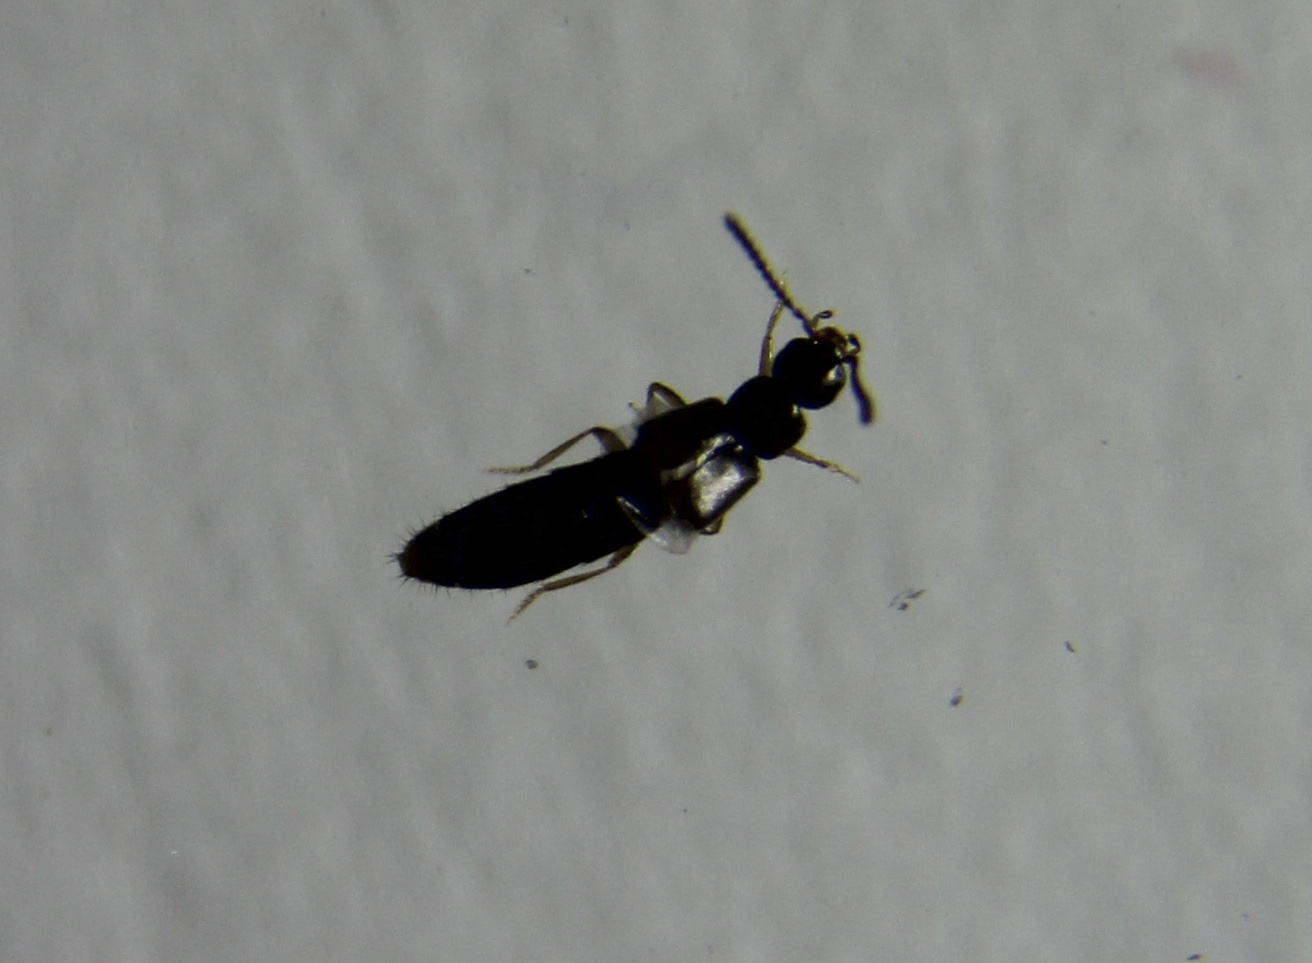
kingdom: Animalia
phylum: Arthropoda
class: Insecta
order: Coleoptera
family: Staphylinidae
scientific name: Staphylinidae
